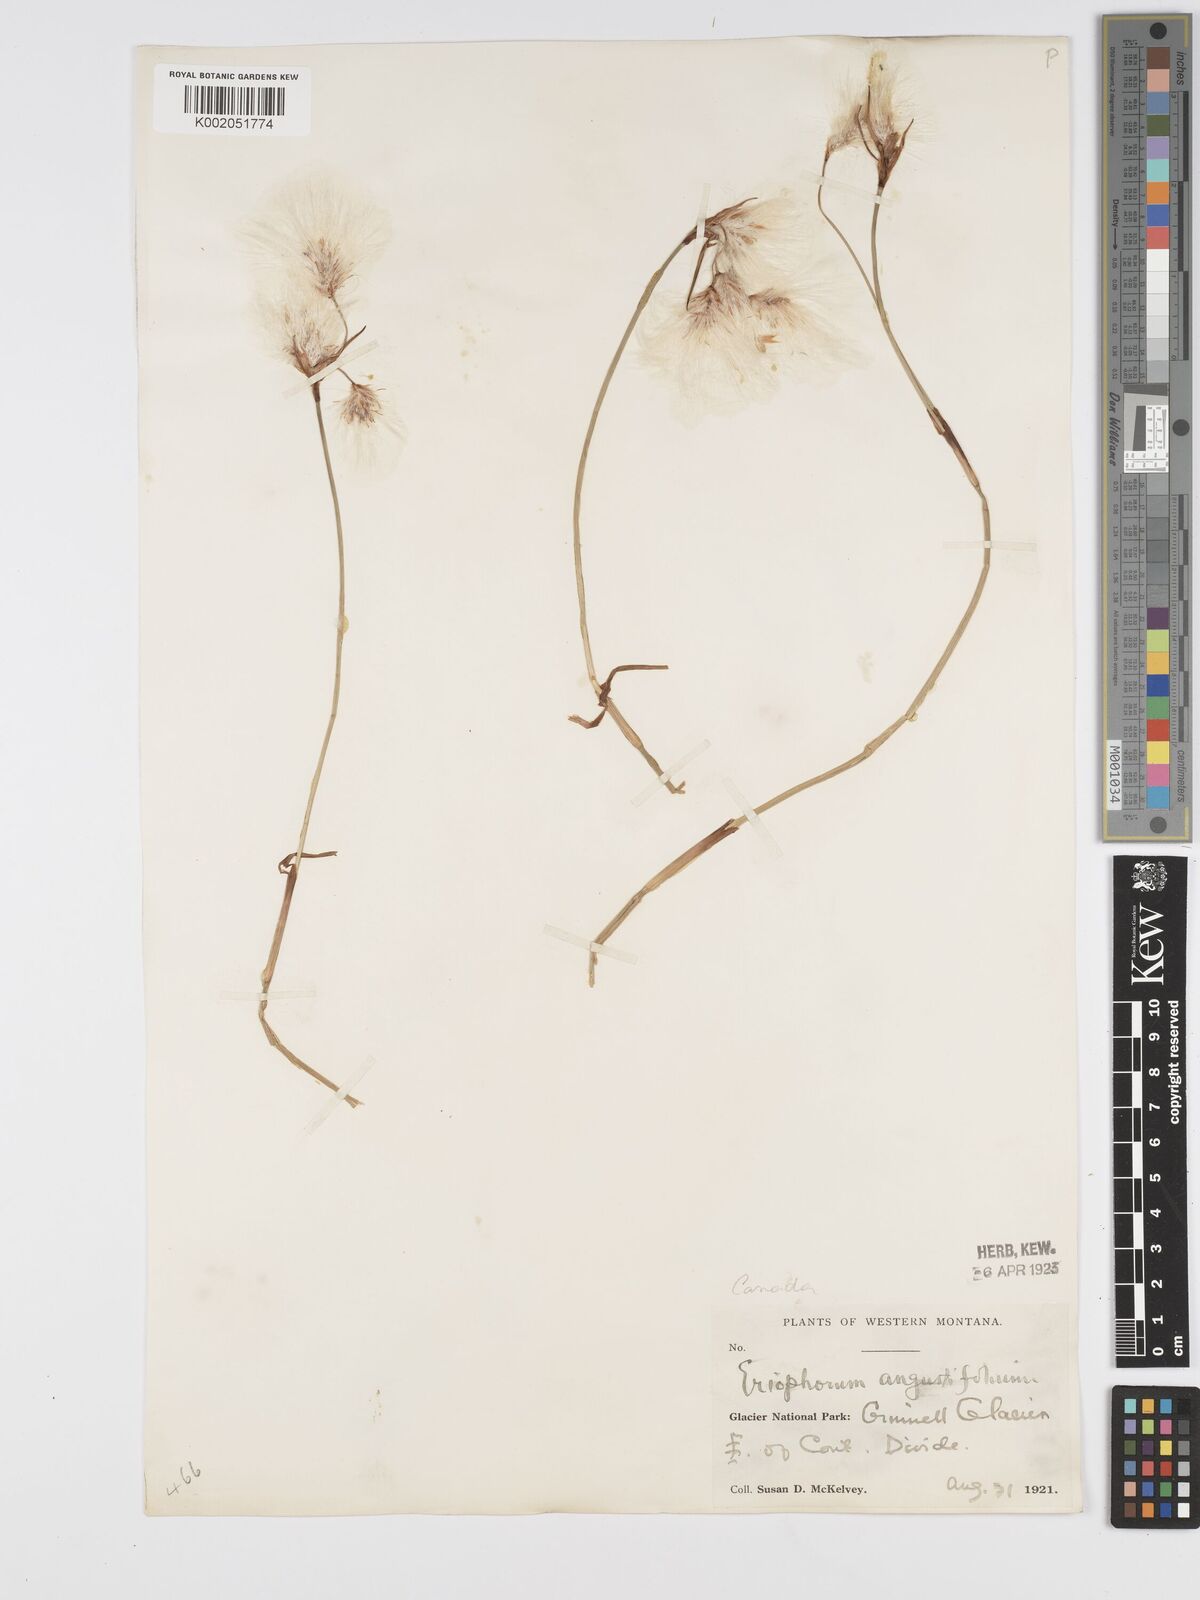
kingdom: Plantae
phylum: Tracheophyta
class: Liliopsida
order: Poales
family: Cyperaceae
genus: Eriophorum
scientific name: Eriophorum angustifolium
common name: Common cottongrass
